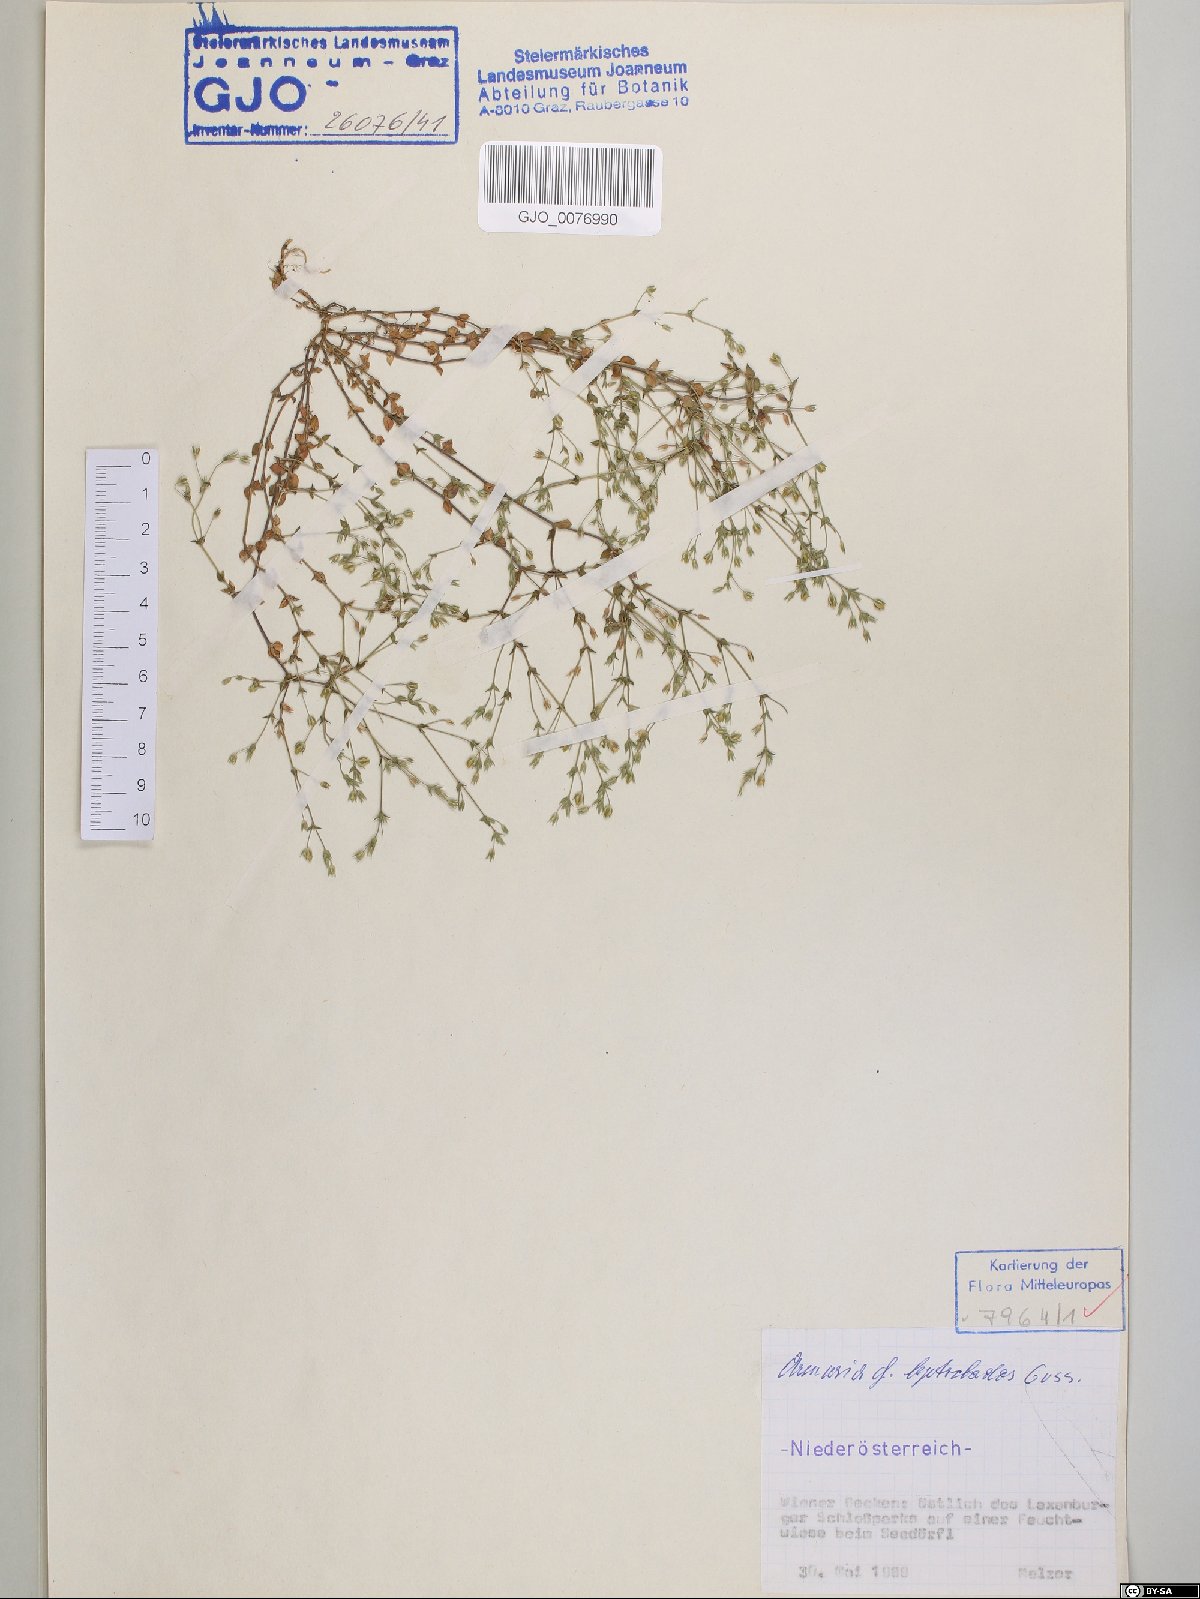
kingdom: Plantae
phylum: Tracheophyta
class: Magnoliopsida
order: Caryophyllales
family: Caryophyllaceae
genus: Arenaria
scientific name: Arenaria leptoclados
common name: Thyme-leaved sandwort
